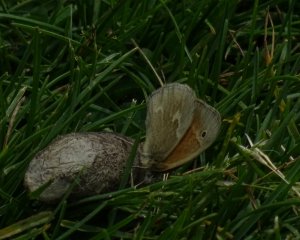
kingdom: Animalia
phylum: Arthropoda
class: Insecta
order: Lepidoptera
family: Nymphalidae
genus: Coenonympha
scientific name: Coenonympha tullia
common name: Large Heath
